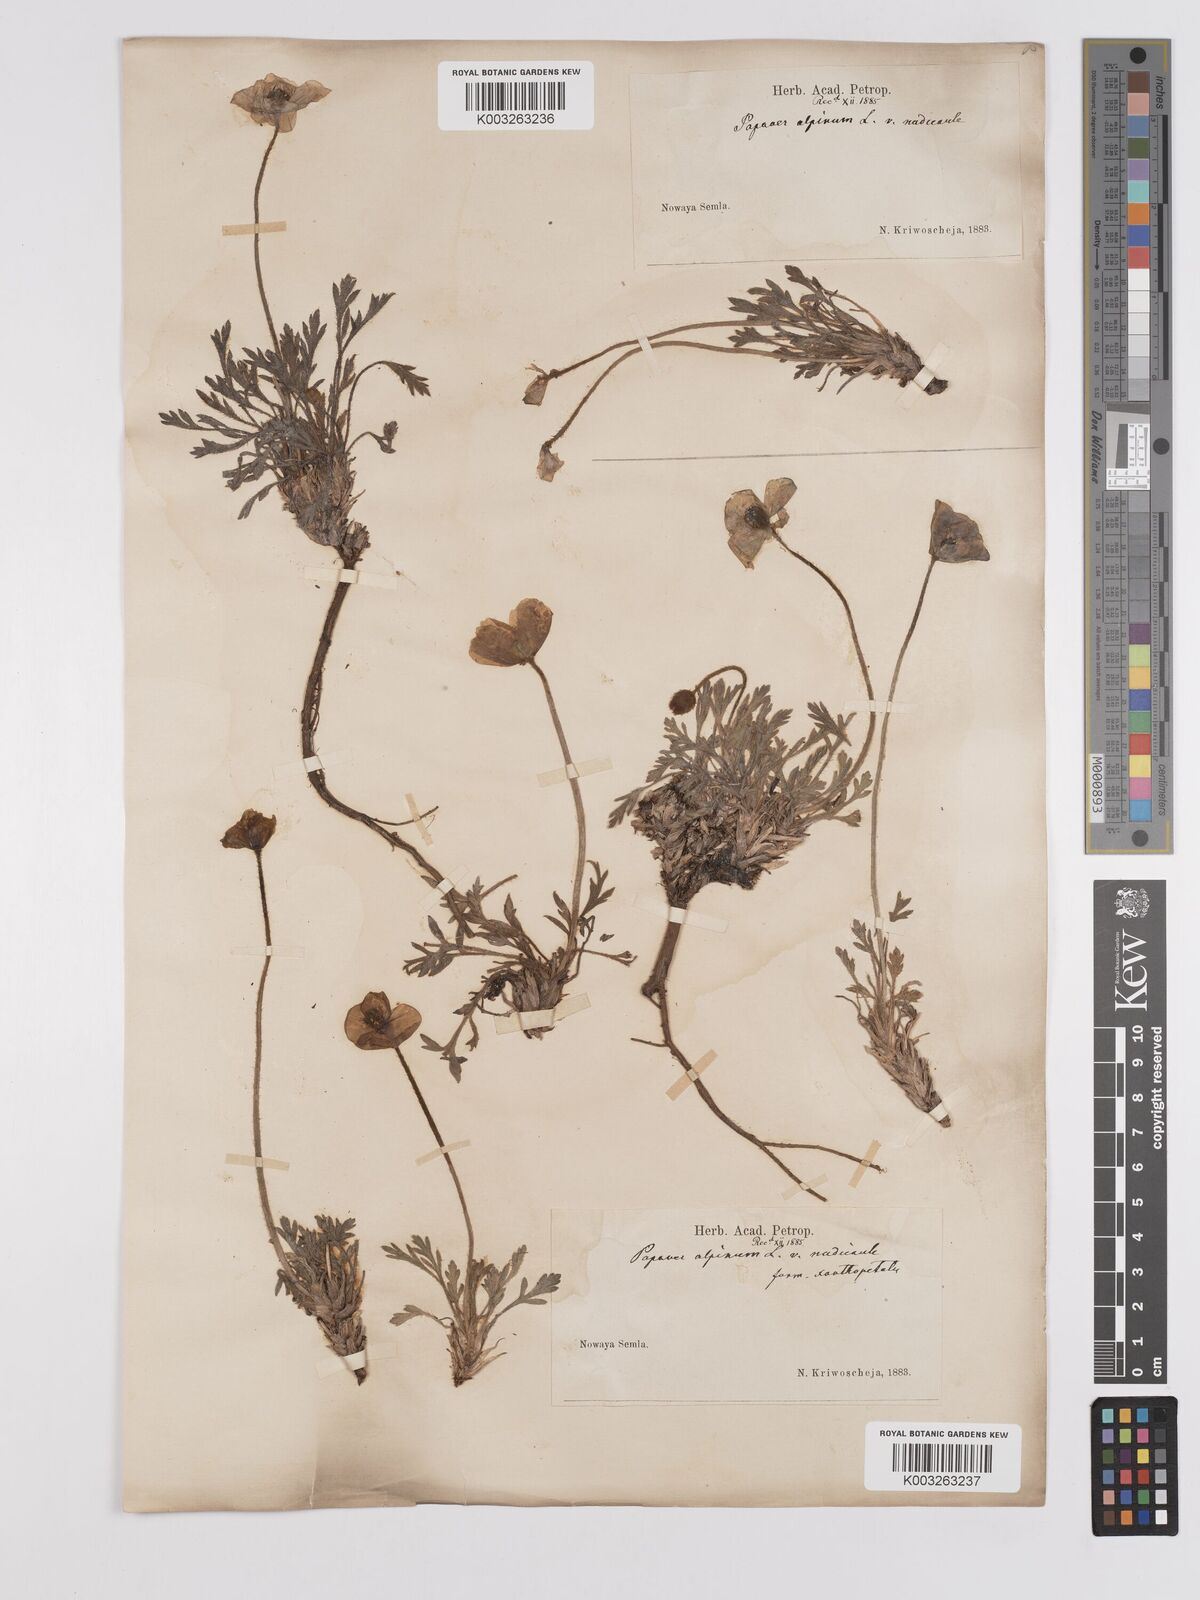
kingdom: Plantae
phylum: Tracheophyta
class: Magnoliopsida
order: Ranunculales
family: Papaveraceae
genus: Papaver
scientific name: Papaver radicatum
